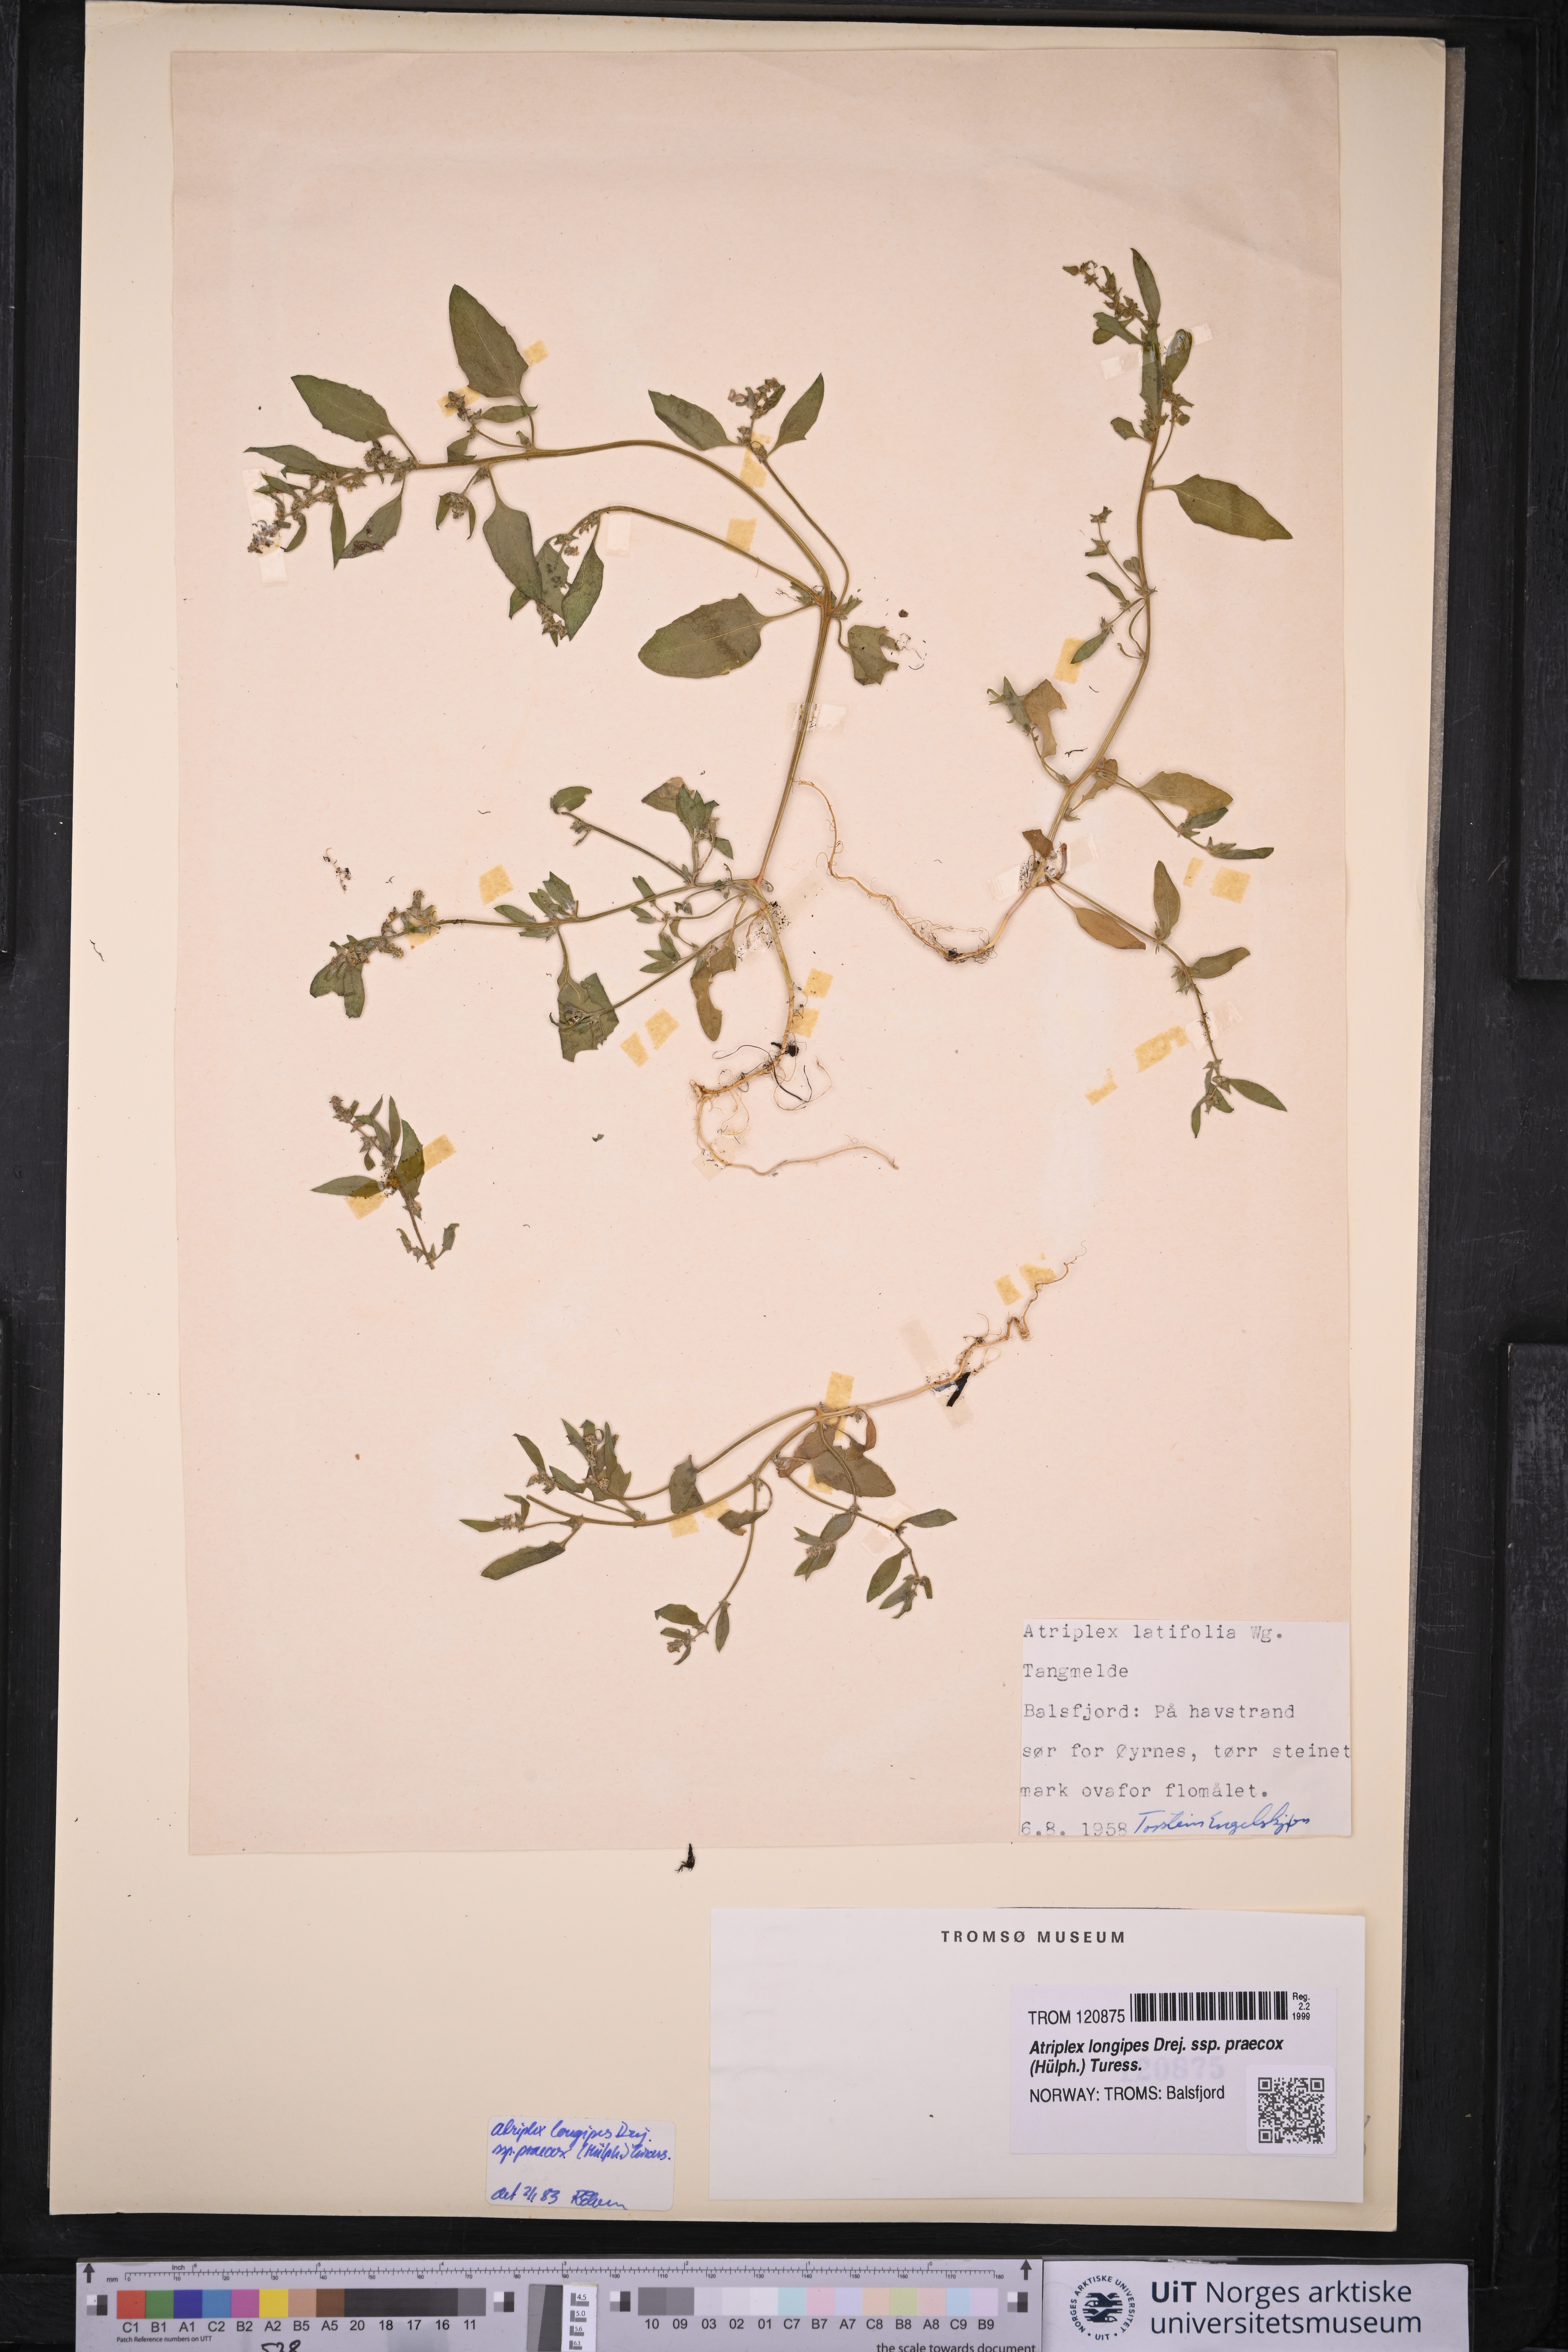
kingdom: Plantae
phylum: Tracheophyta
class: Magnoliopsida
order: Caryophyllales
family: Amaranthaceae
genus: Atriplex
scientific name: Atriplex praecox
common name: Early orache
